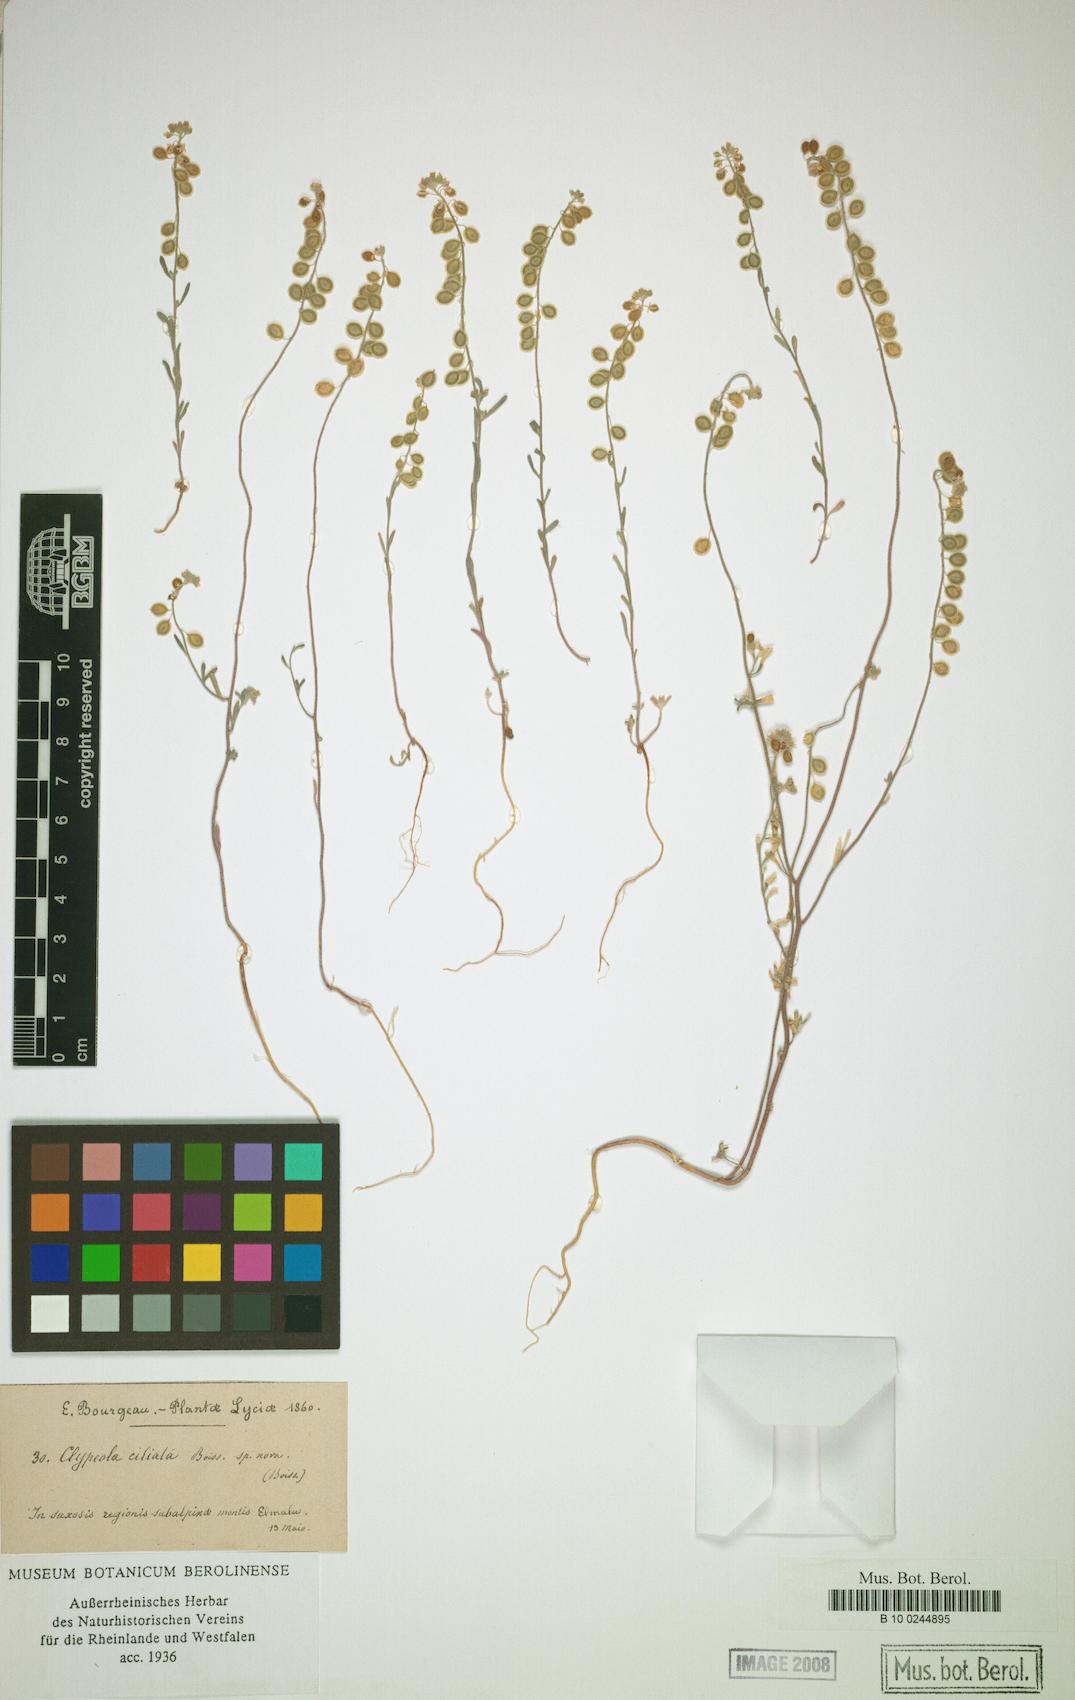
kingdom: Plantae
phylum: Tracheophyta
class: Magnoliopsida
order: Brassicales
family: Brassicaceae
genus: Clypeola
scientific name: Clypeola ciliata
